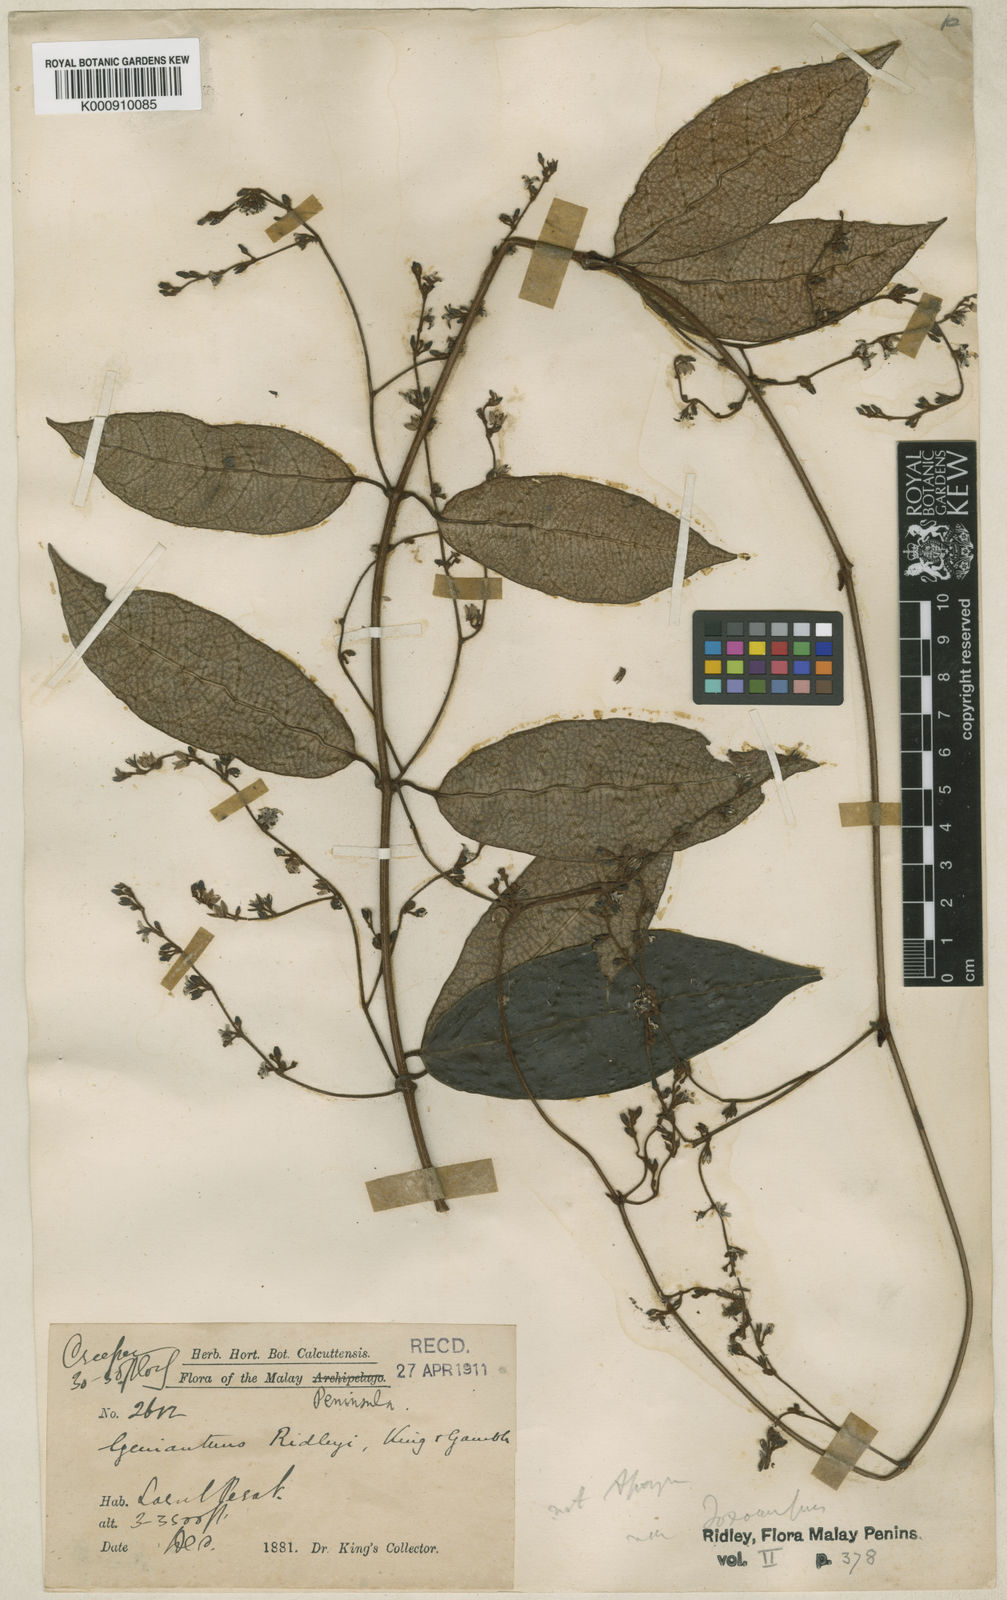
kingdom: Plantae
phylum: Tracheophyta
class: Magnoliopsida
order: Gentianales
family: Apocynaceae
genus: Secamone
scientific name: Secamone
